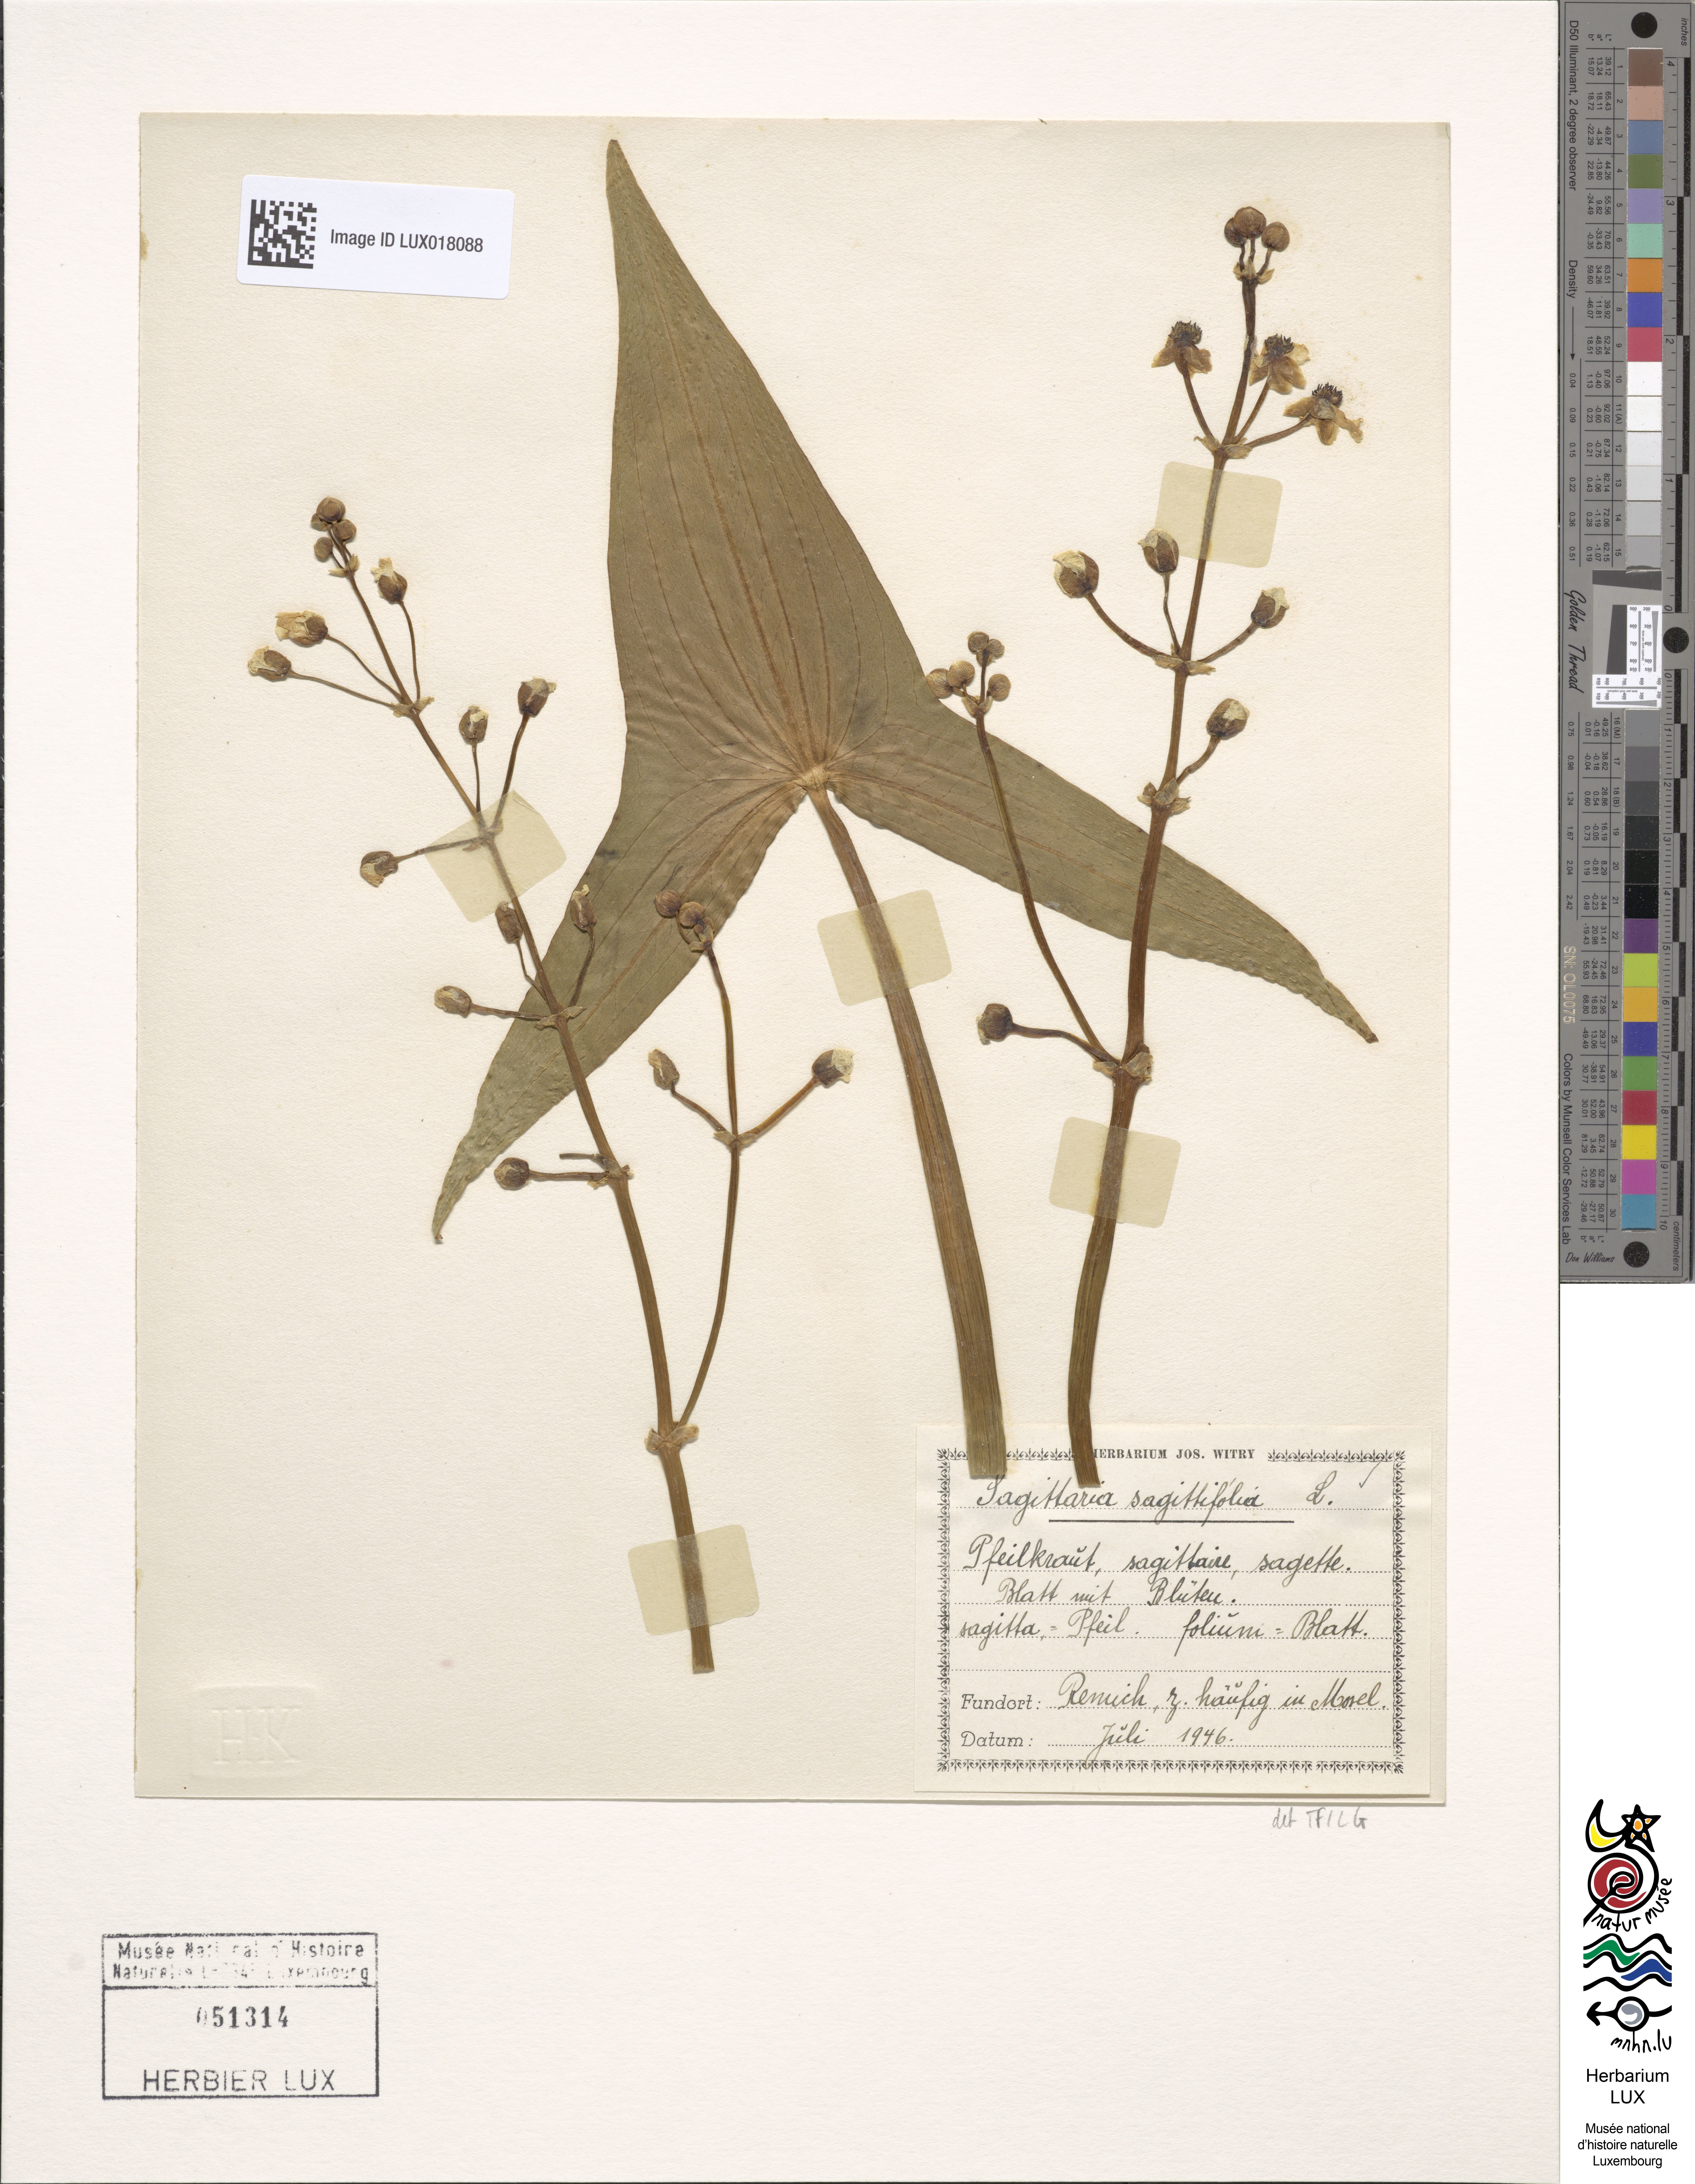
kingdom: Plantae
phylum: Tracheophyta
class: Liliopsida
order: Alismatales
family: Alismataceae
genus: Sagittaria
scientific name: Sagittaria sagittifolia
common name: Arrowhead
